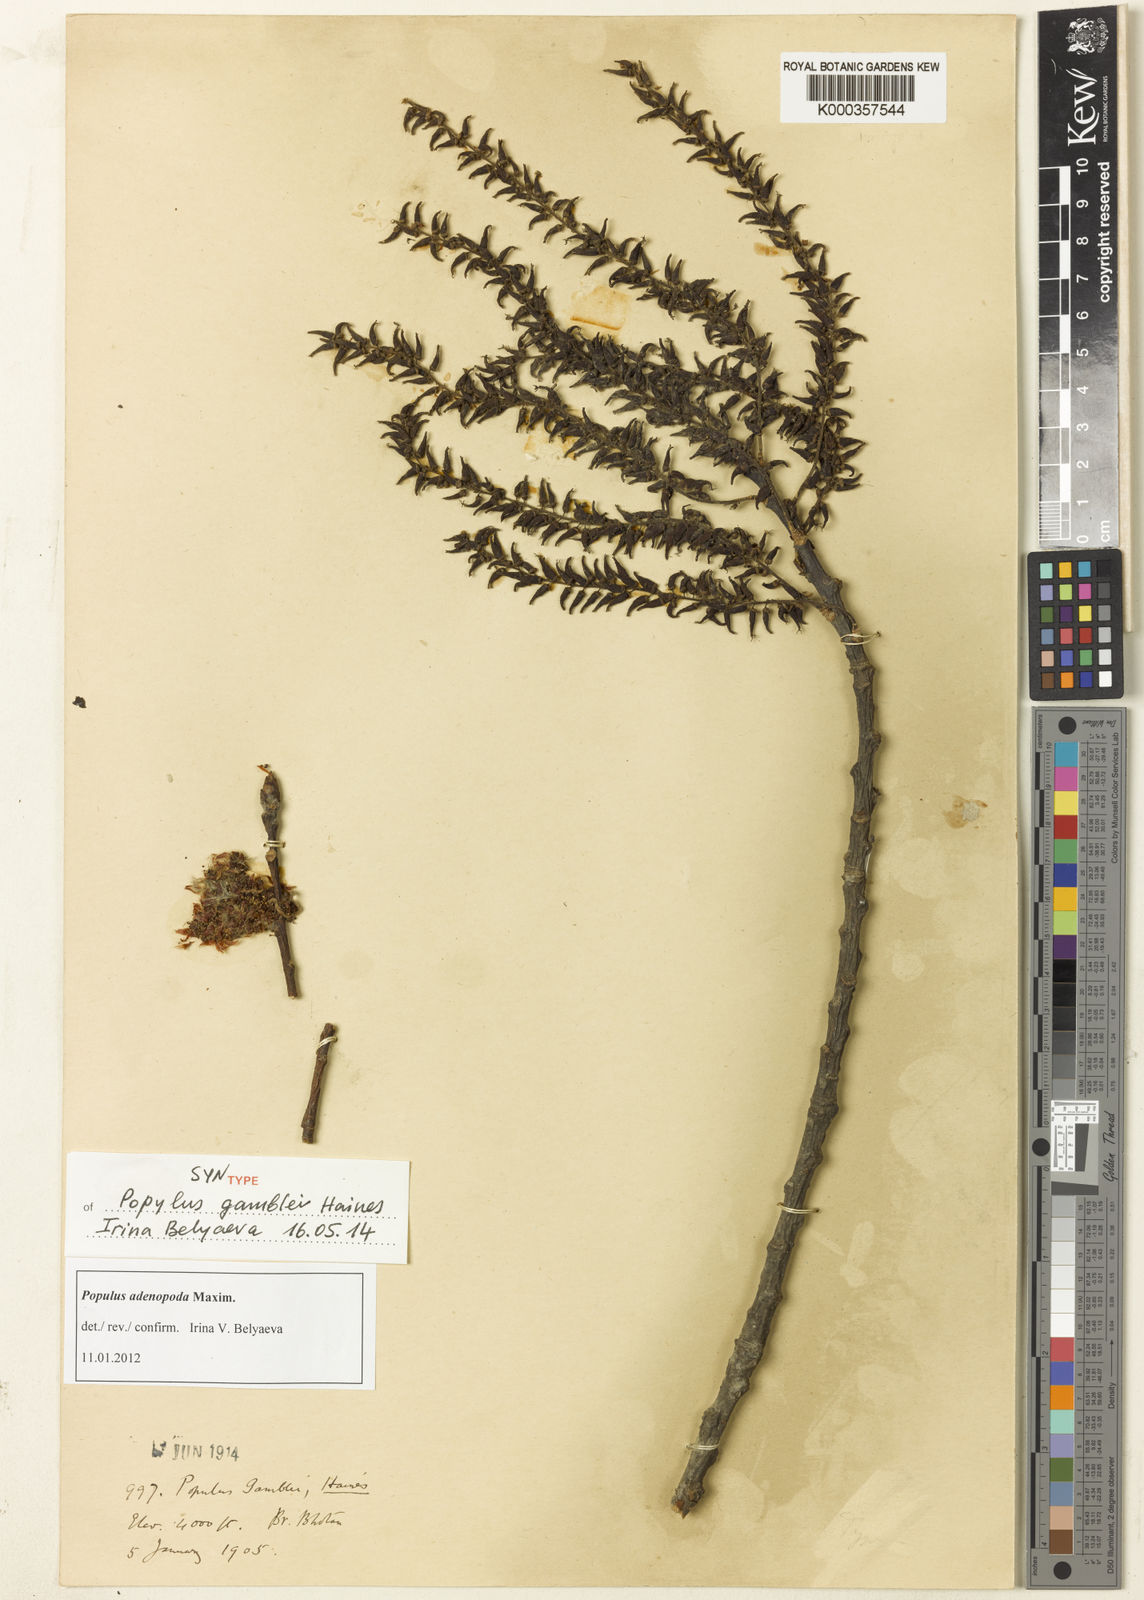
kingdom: Plantae
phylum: Tracheophyta
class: Magnoliopsida
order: Malpighiales
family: Salicaceae
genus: Populus
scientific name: Populus
